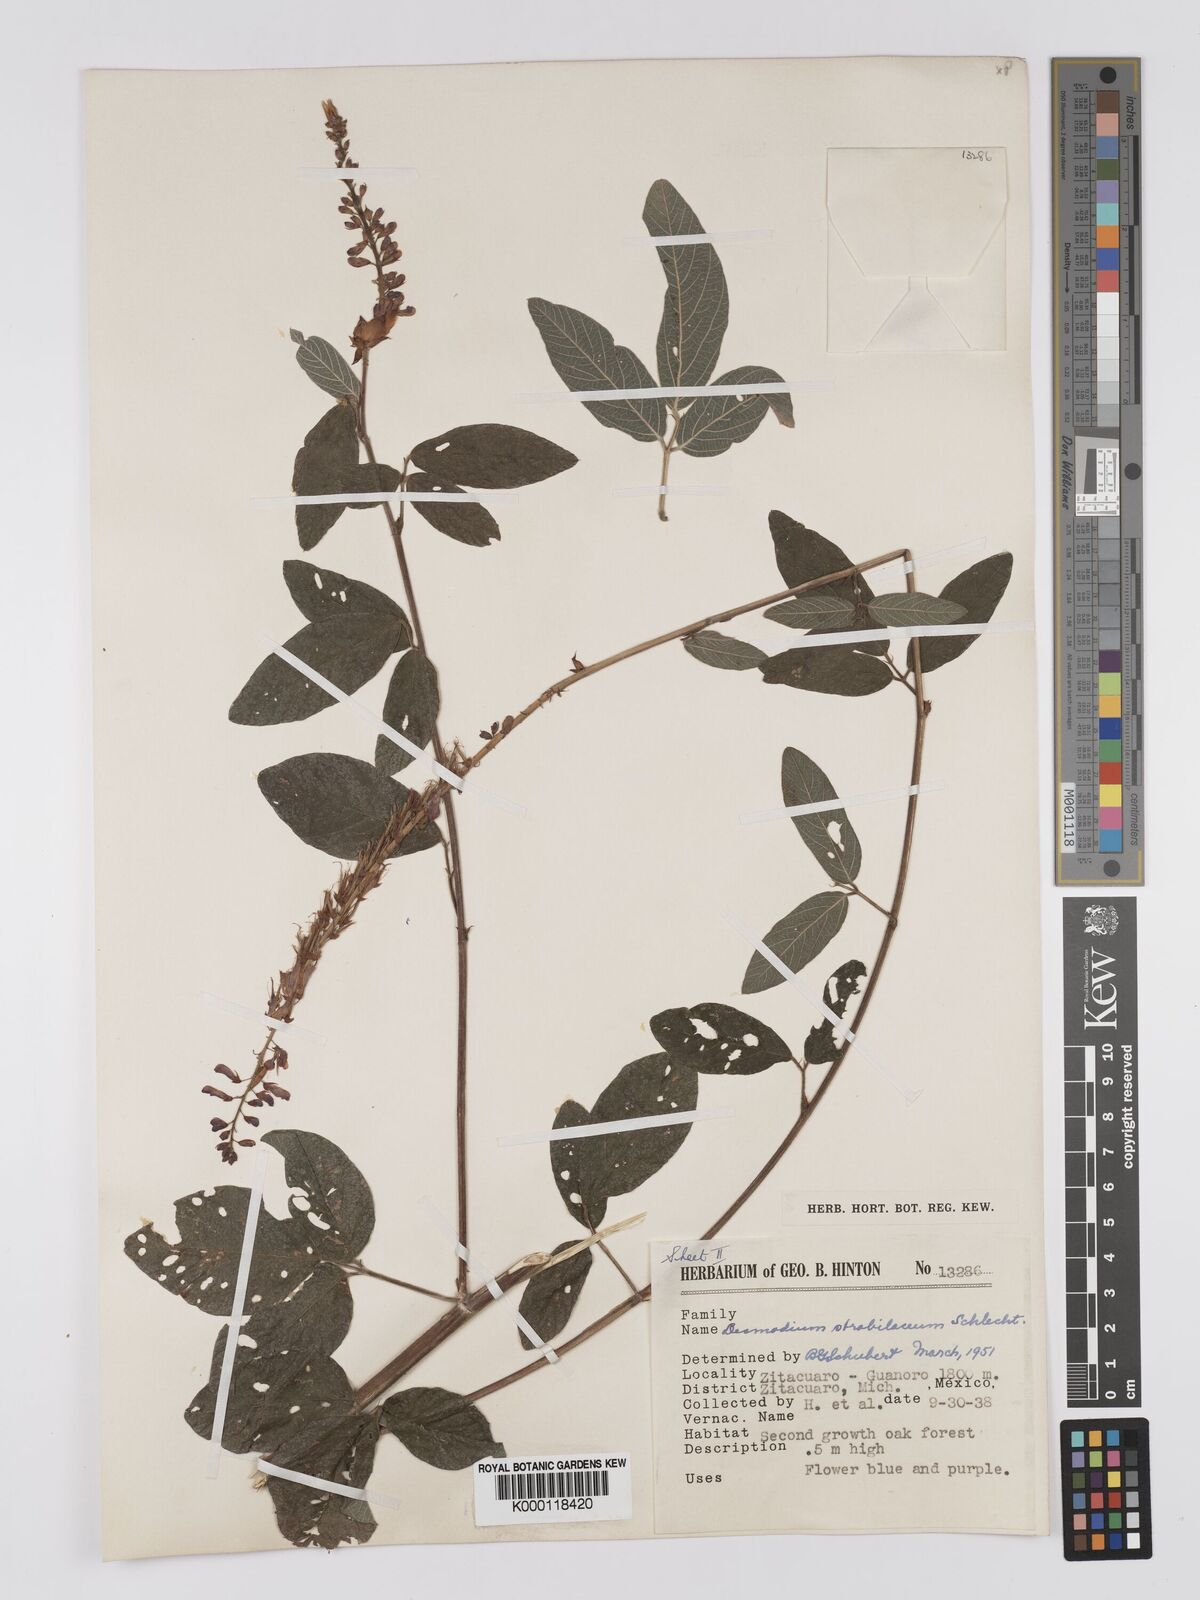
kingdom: Plantae
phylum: Tracheophyta
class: Magnoliopsida
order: Fabales
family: Fabaceae
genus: Desmodium
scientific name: Desmodium sericophyllum
